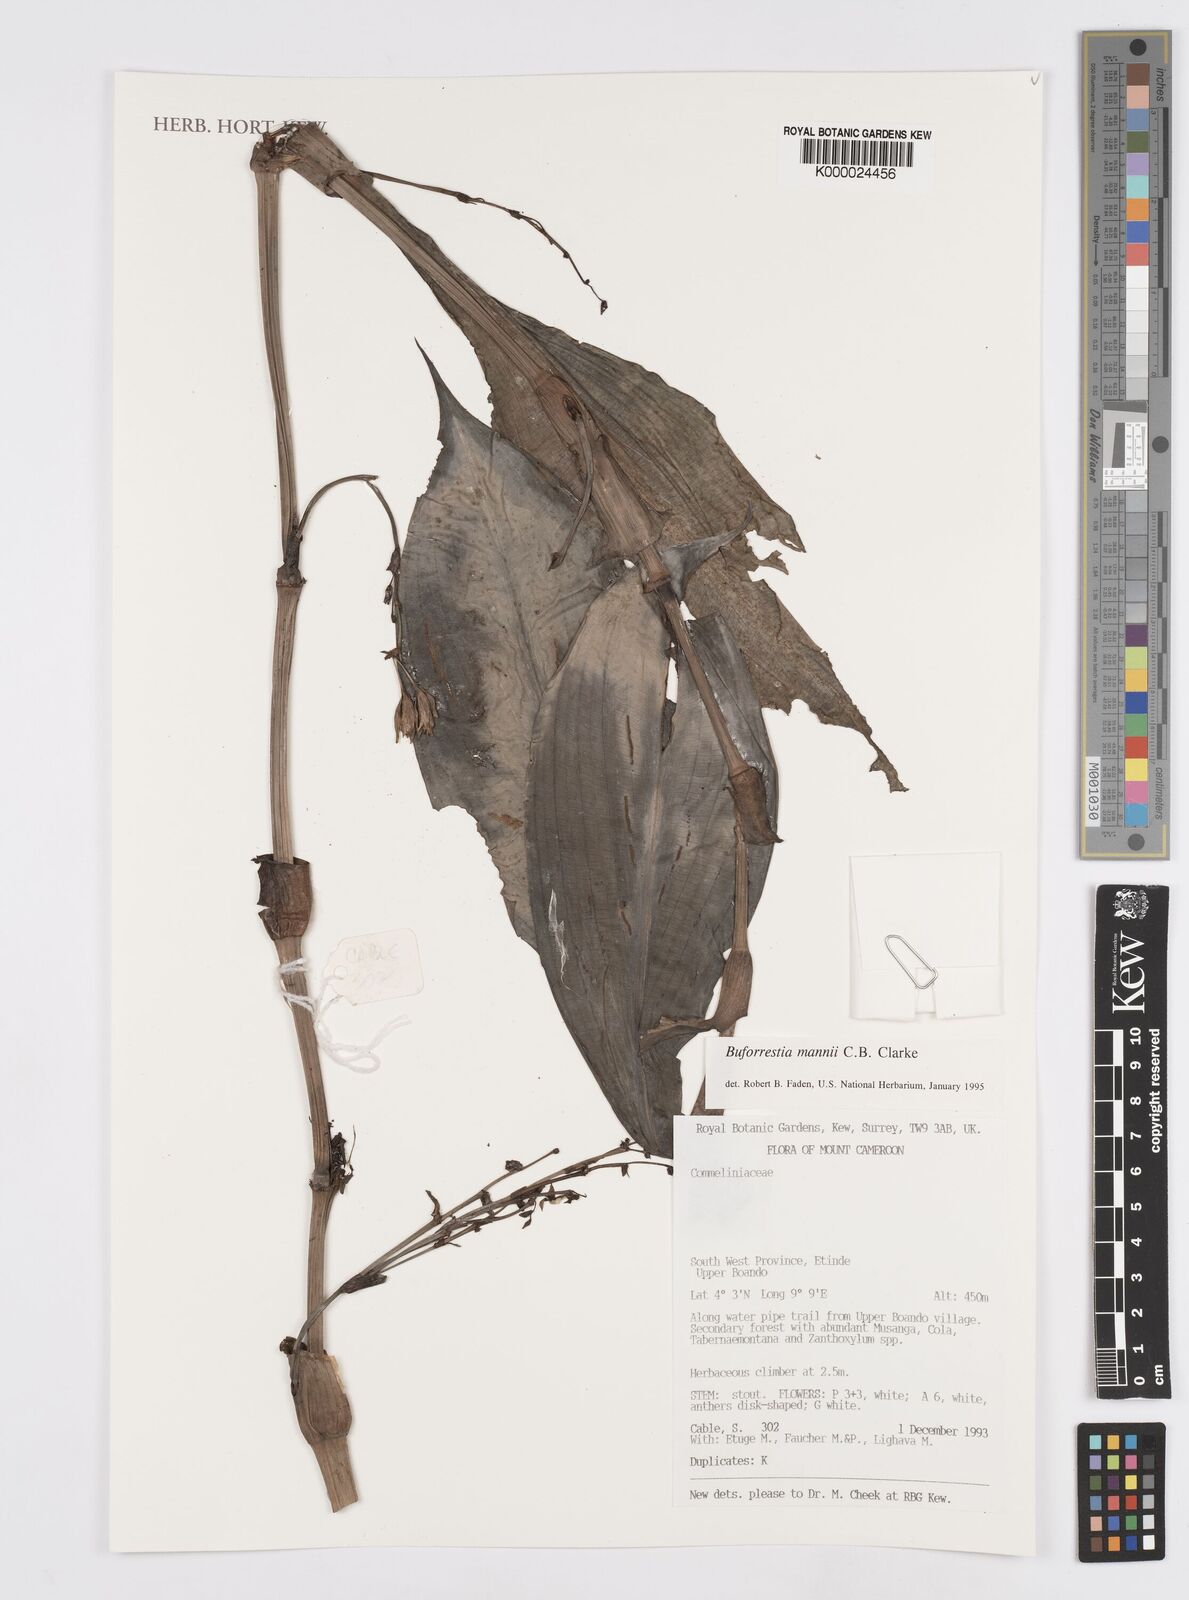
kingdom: Plantae
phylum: Tracheophyta
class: Liliopsida
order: Commelinales
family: Commelinaceae
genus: Buforrestia
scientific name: Buforrestia mannii
